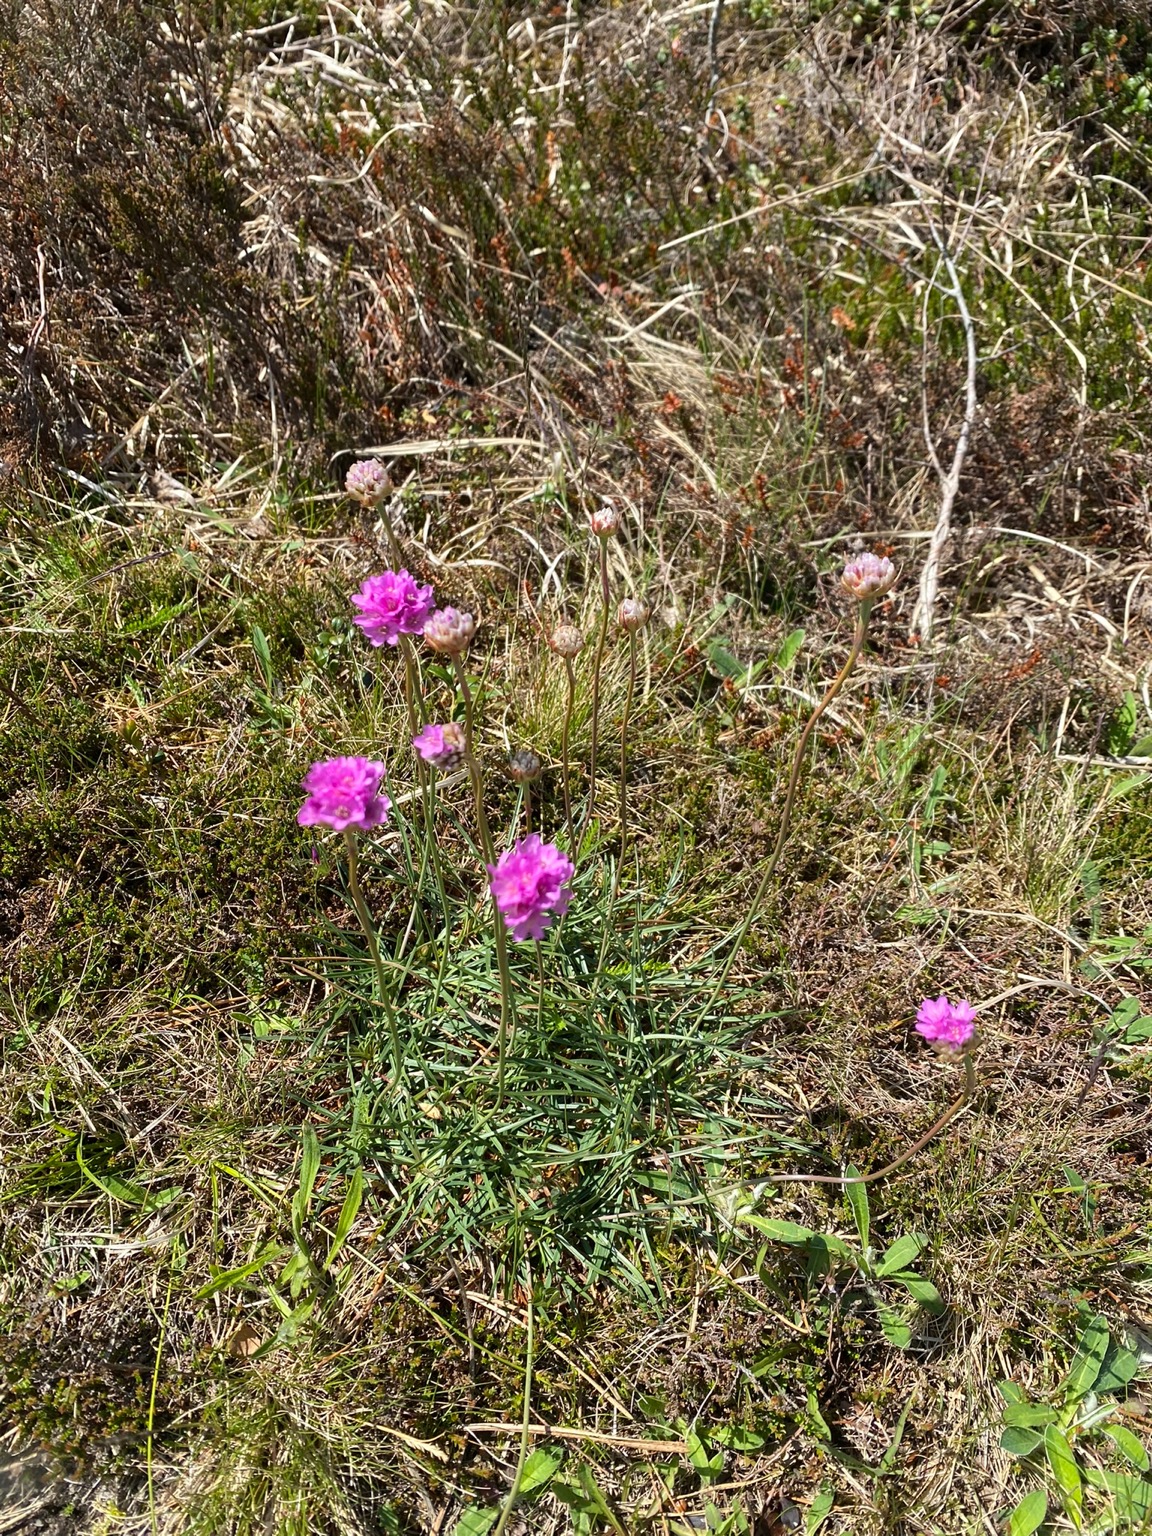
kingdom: Plantae
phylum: Tracheophyta
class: Magnoliopsida
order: Caryophyllales
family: Plumbaginaceae
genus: Armeria
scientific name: Armeria maritima
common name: Engelskgræs
